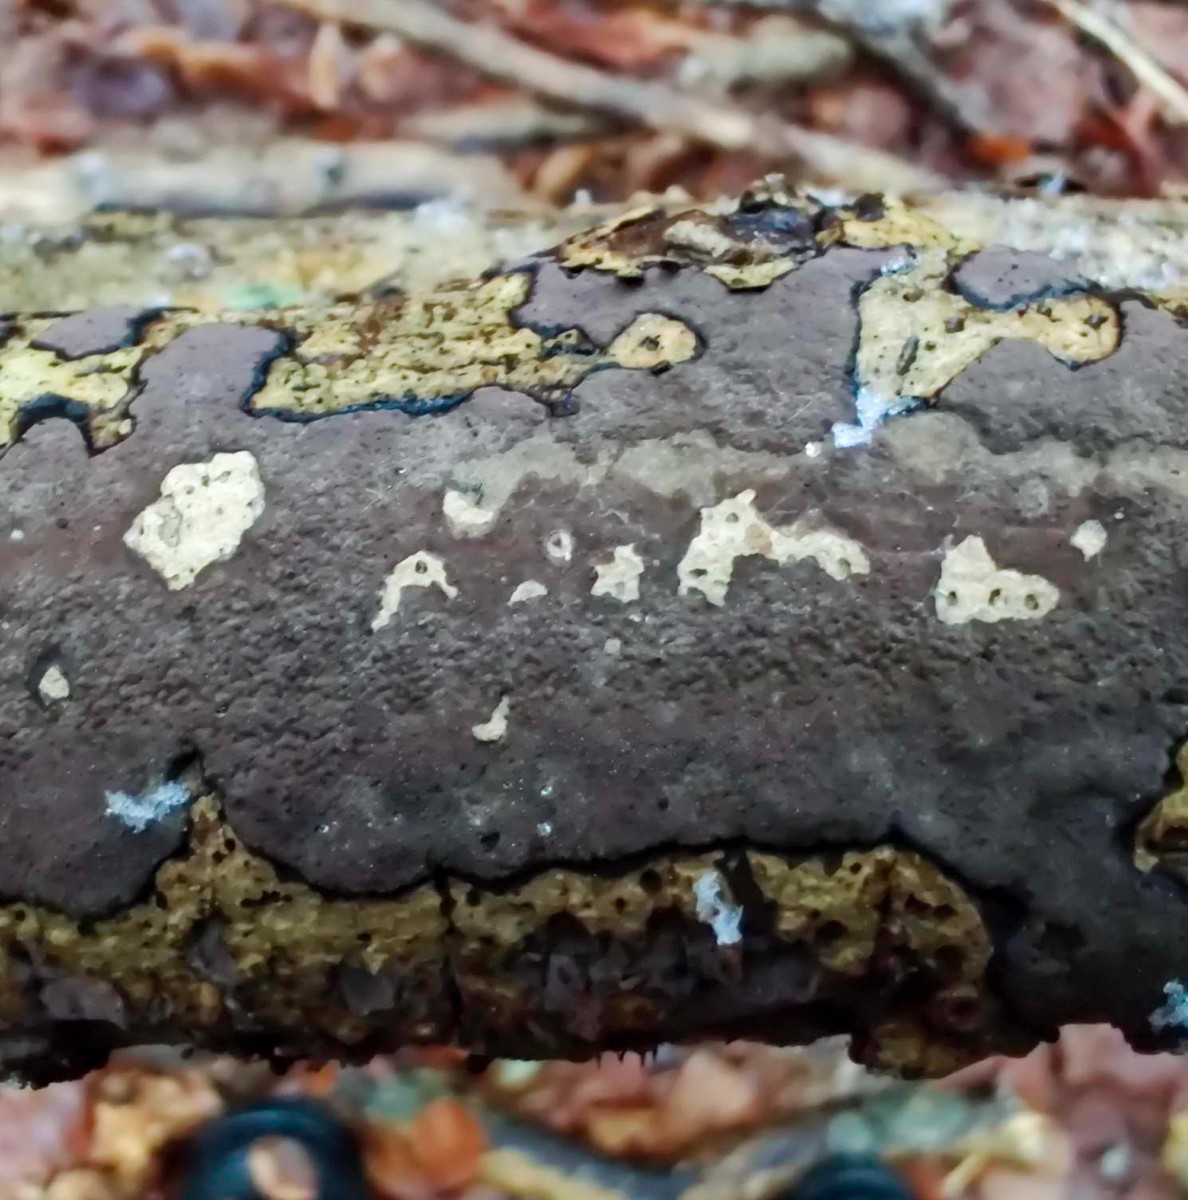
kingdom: Fungi
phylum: Ascomycota
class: Sordariomycetes
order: Xylariales
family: Hypoxylaceae
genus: Hypoxylon
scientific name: Hypoxylon petriniae
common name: nedsænket kulbær
